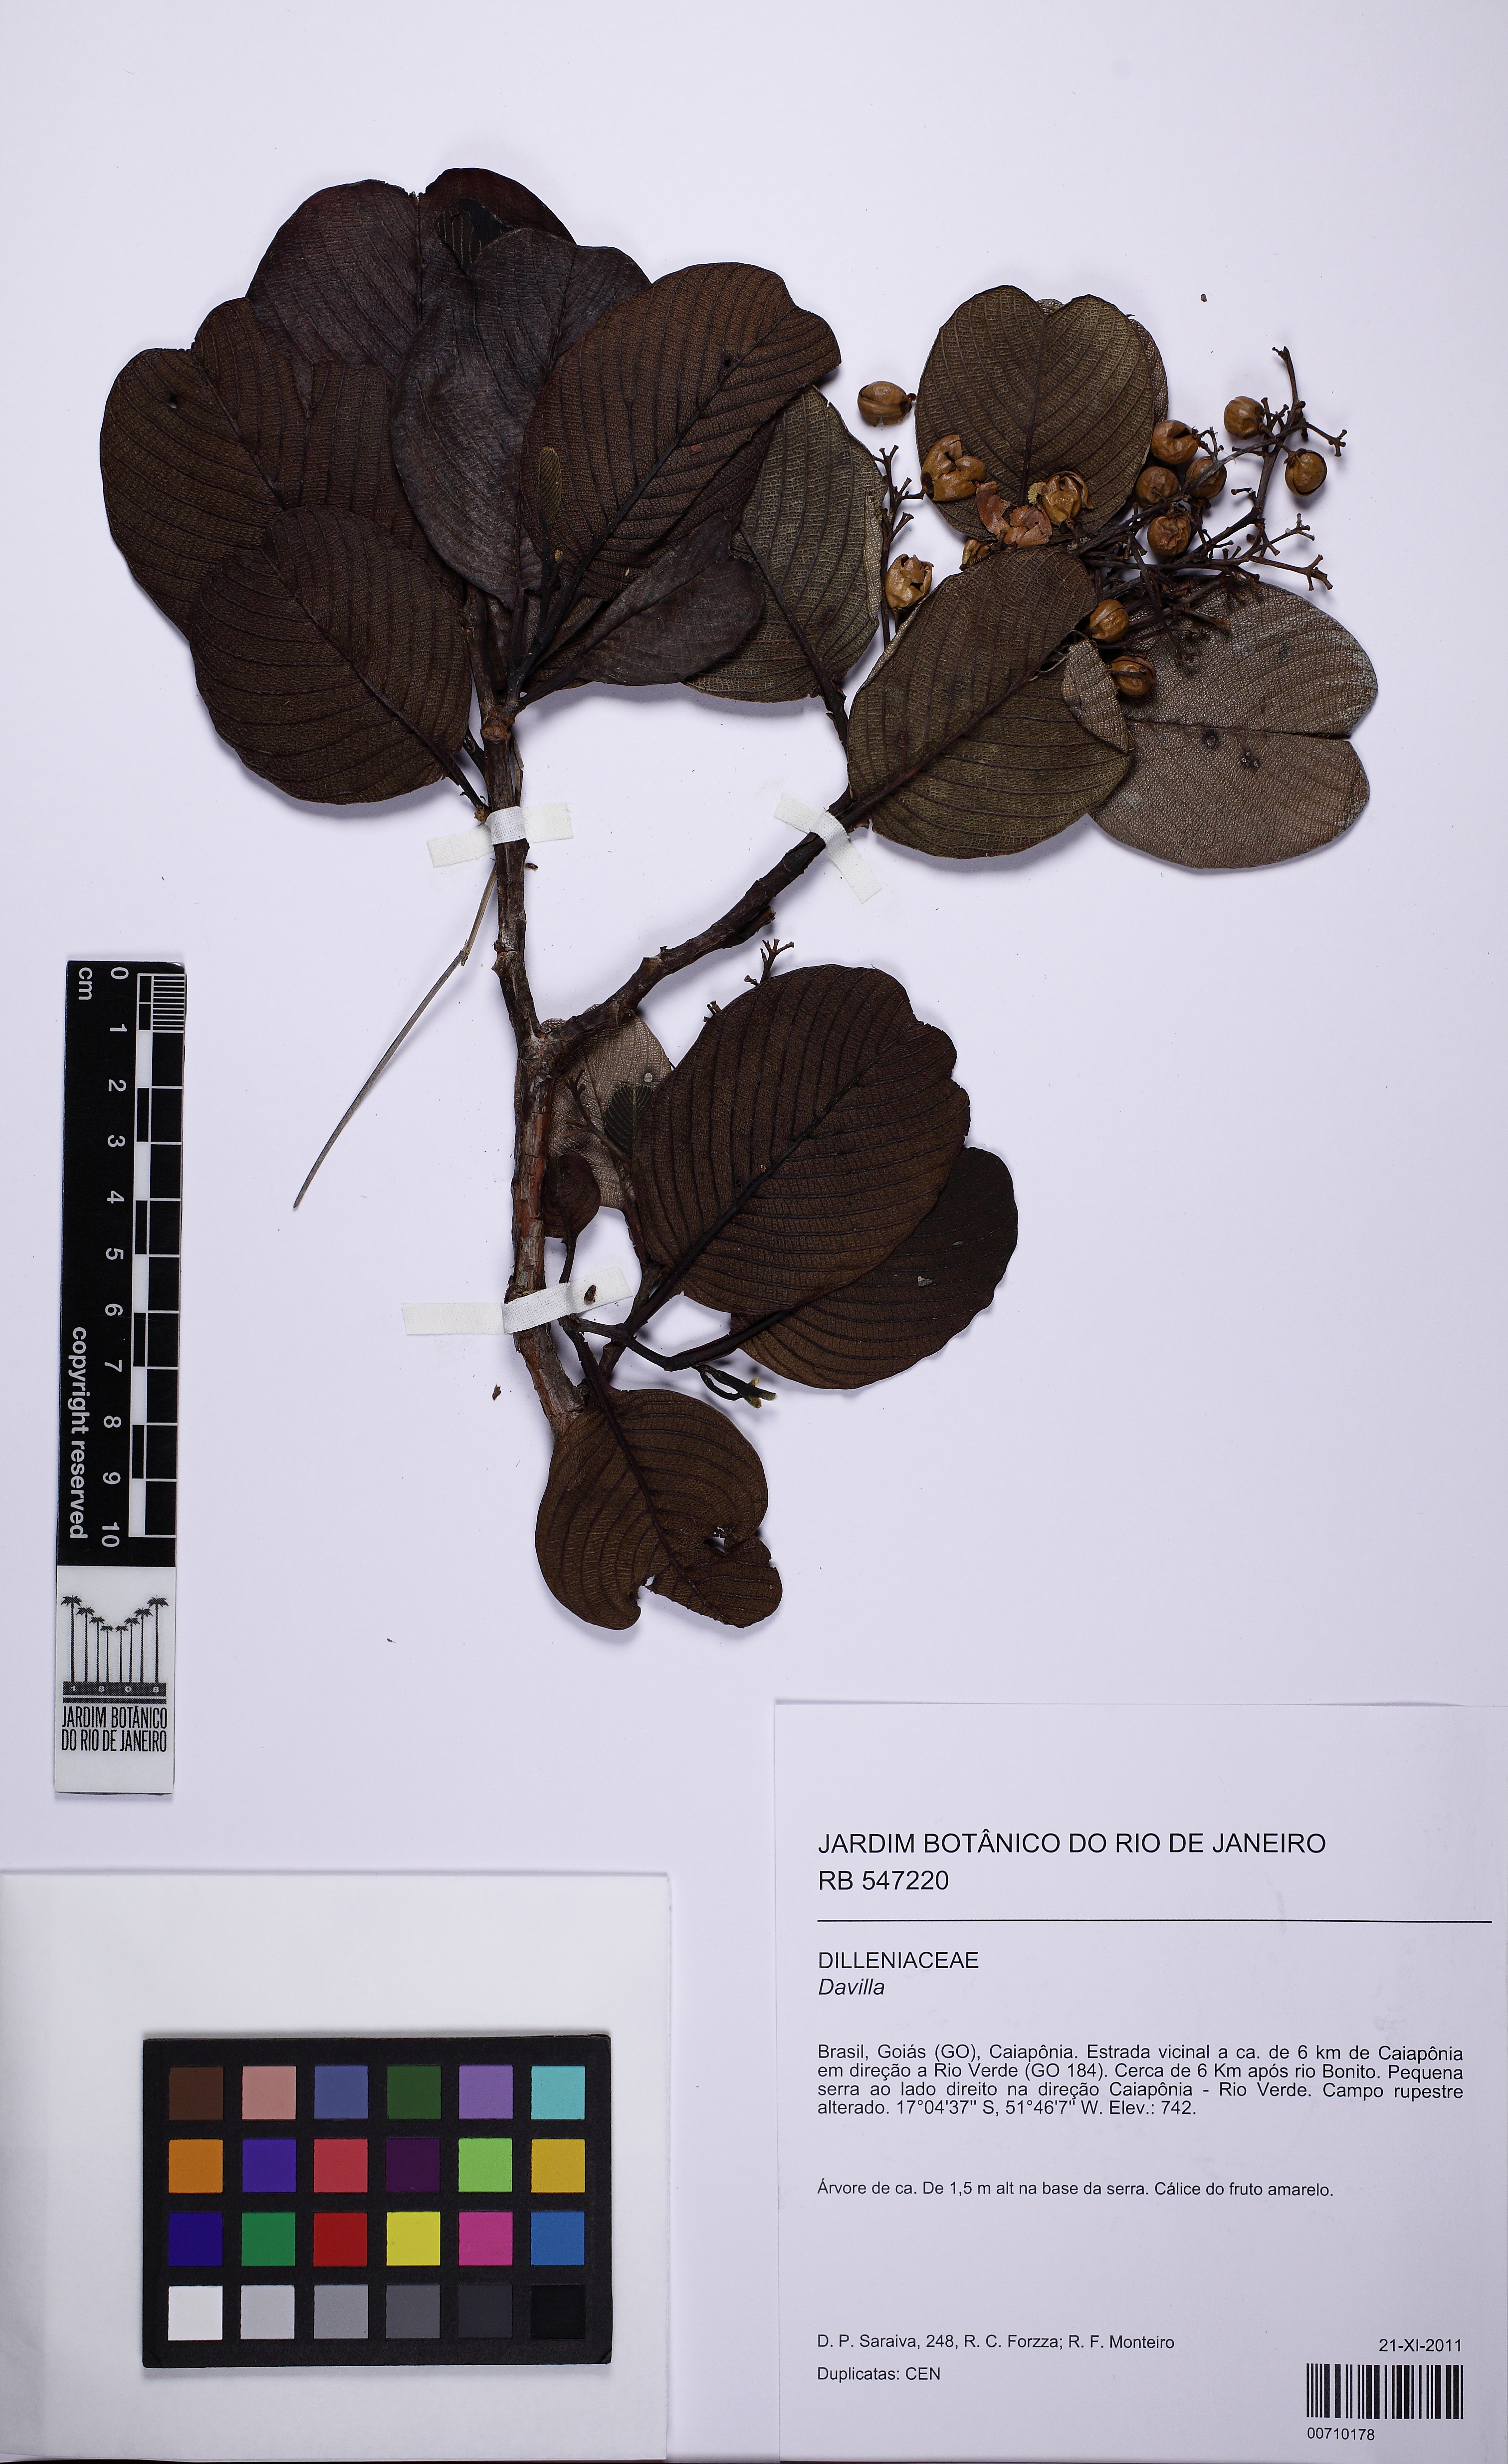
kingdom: Plantae
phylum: Tracheophyta
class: Magnoliopsida
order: Dilleniales
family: Dilleniaceae
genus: Davilla
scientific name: Davilla lacunosa
